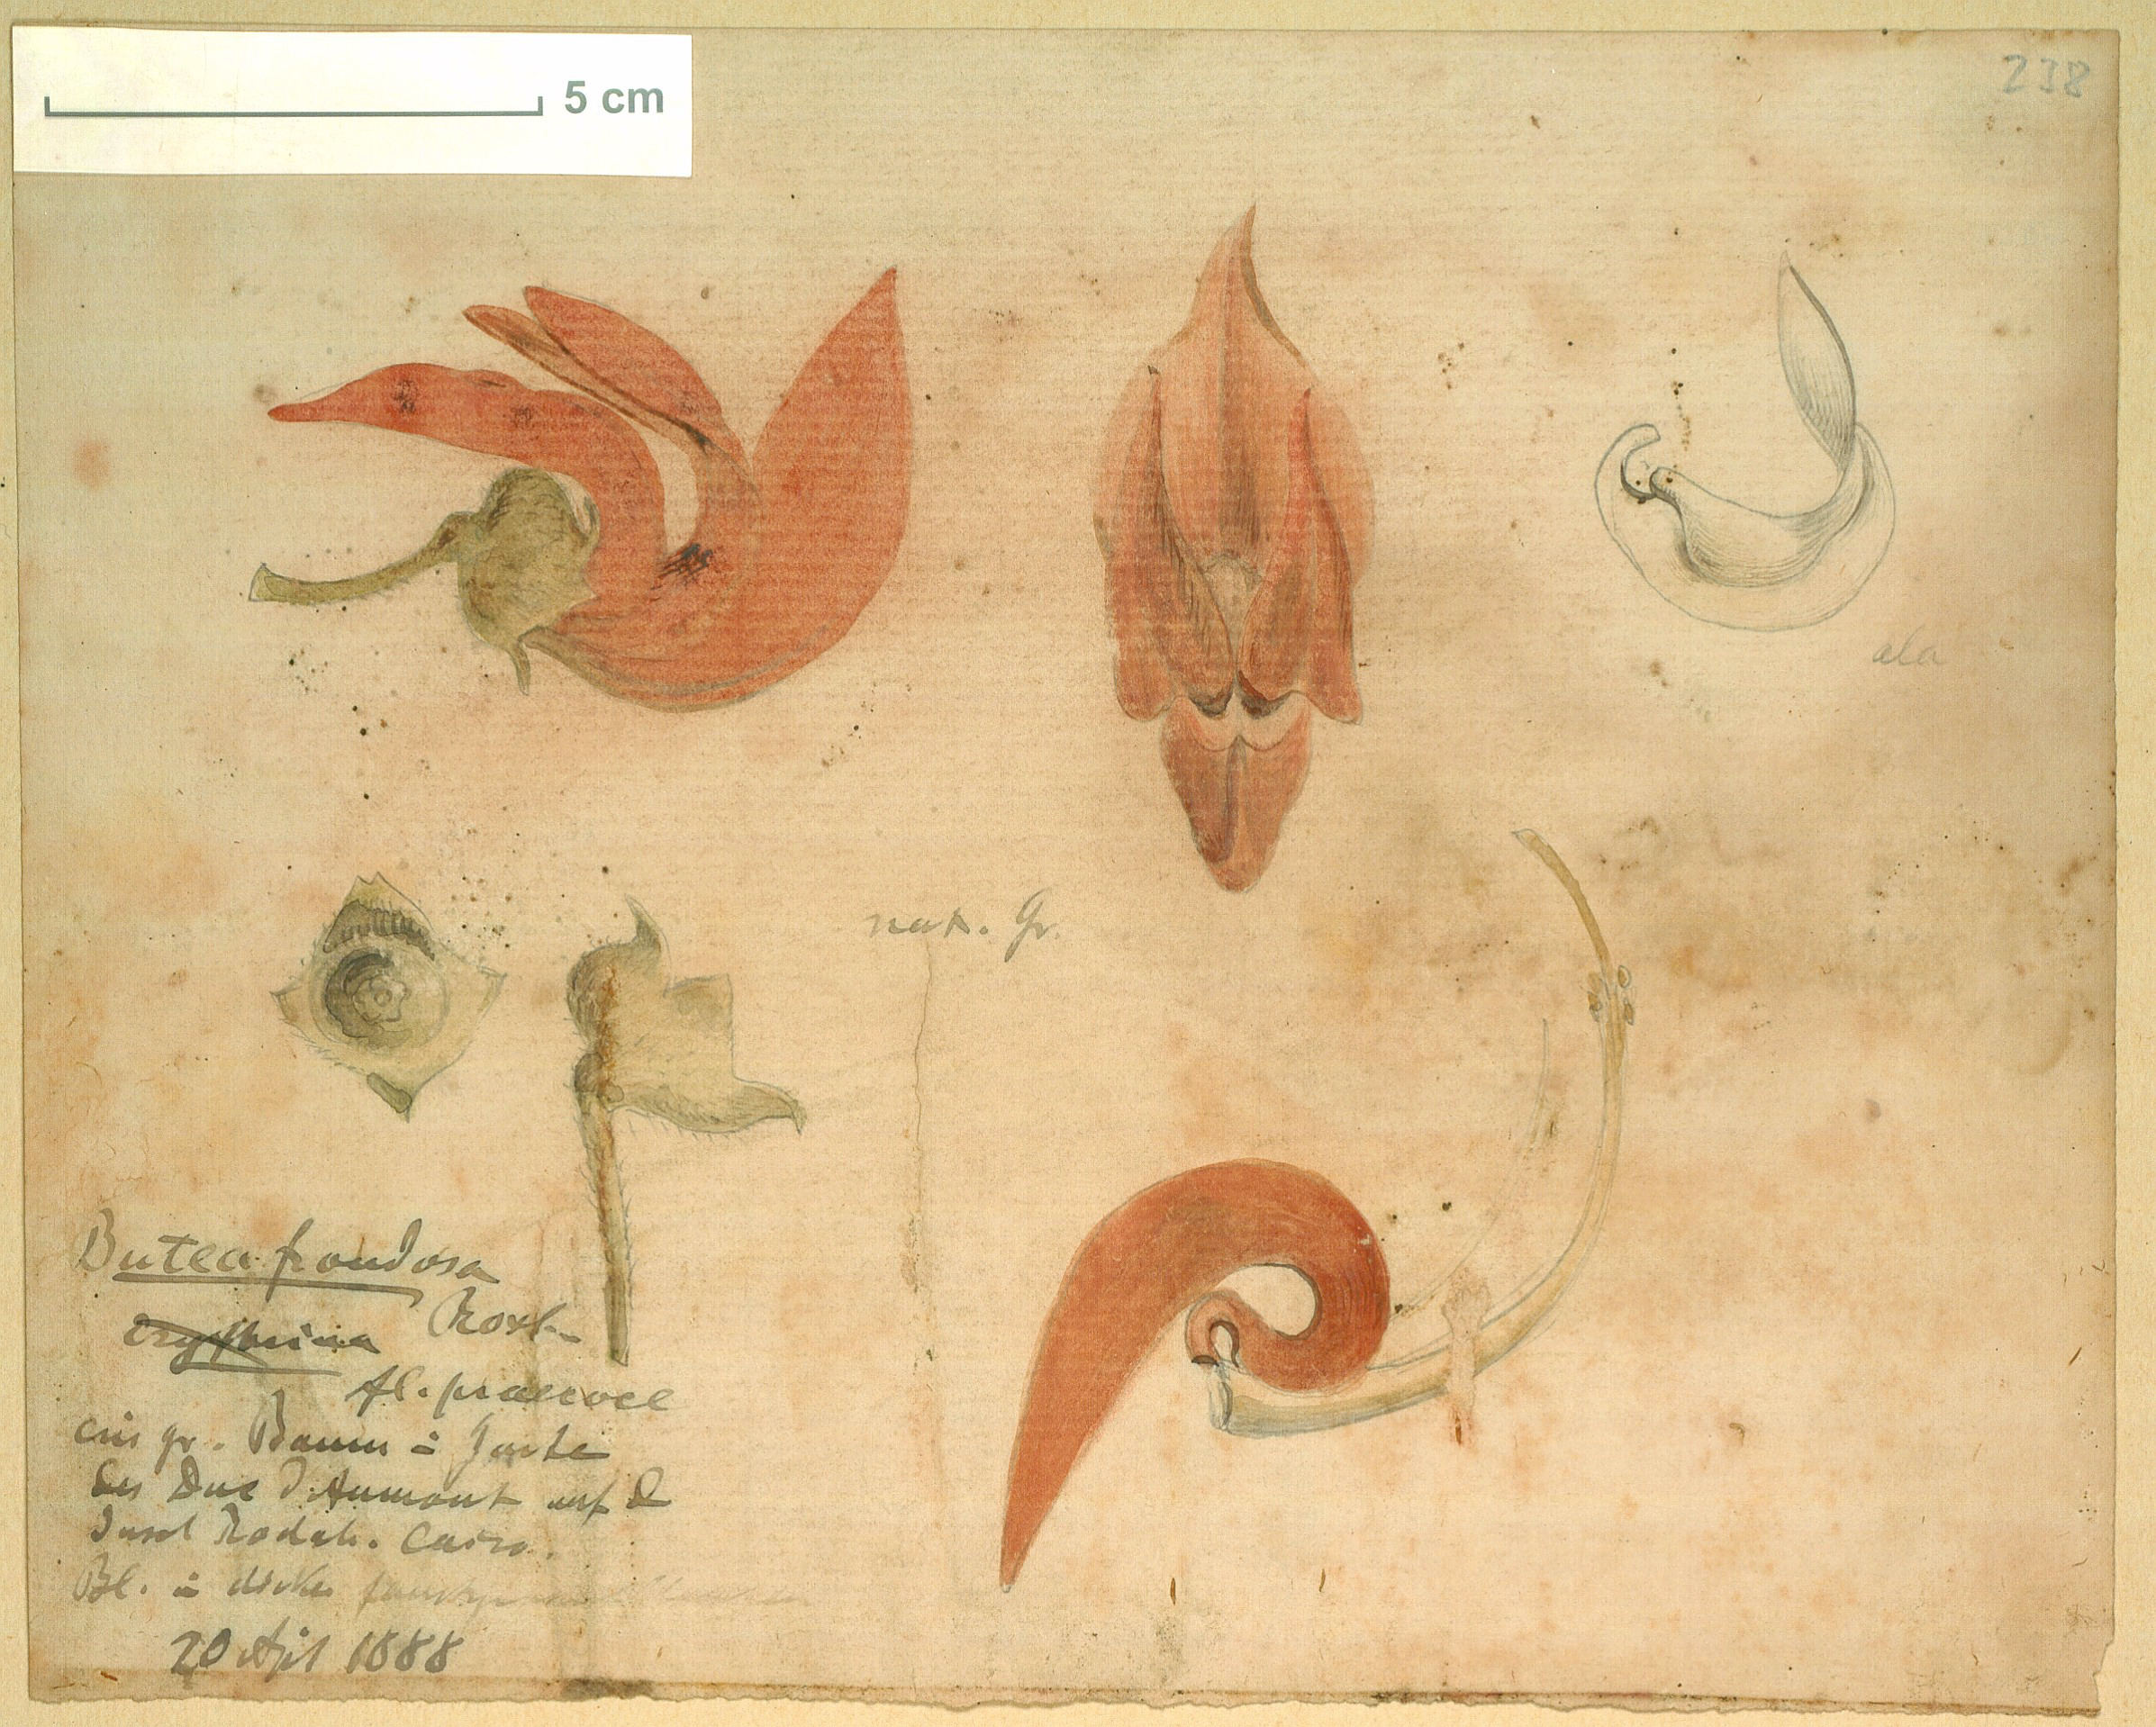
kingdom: Plantae
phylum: Tracheophyta
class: Magnoliopsida
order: Fabales
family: Fabaceae
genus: Butea
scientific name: Butea monosperma
